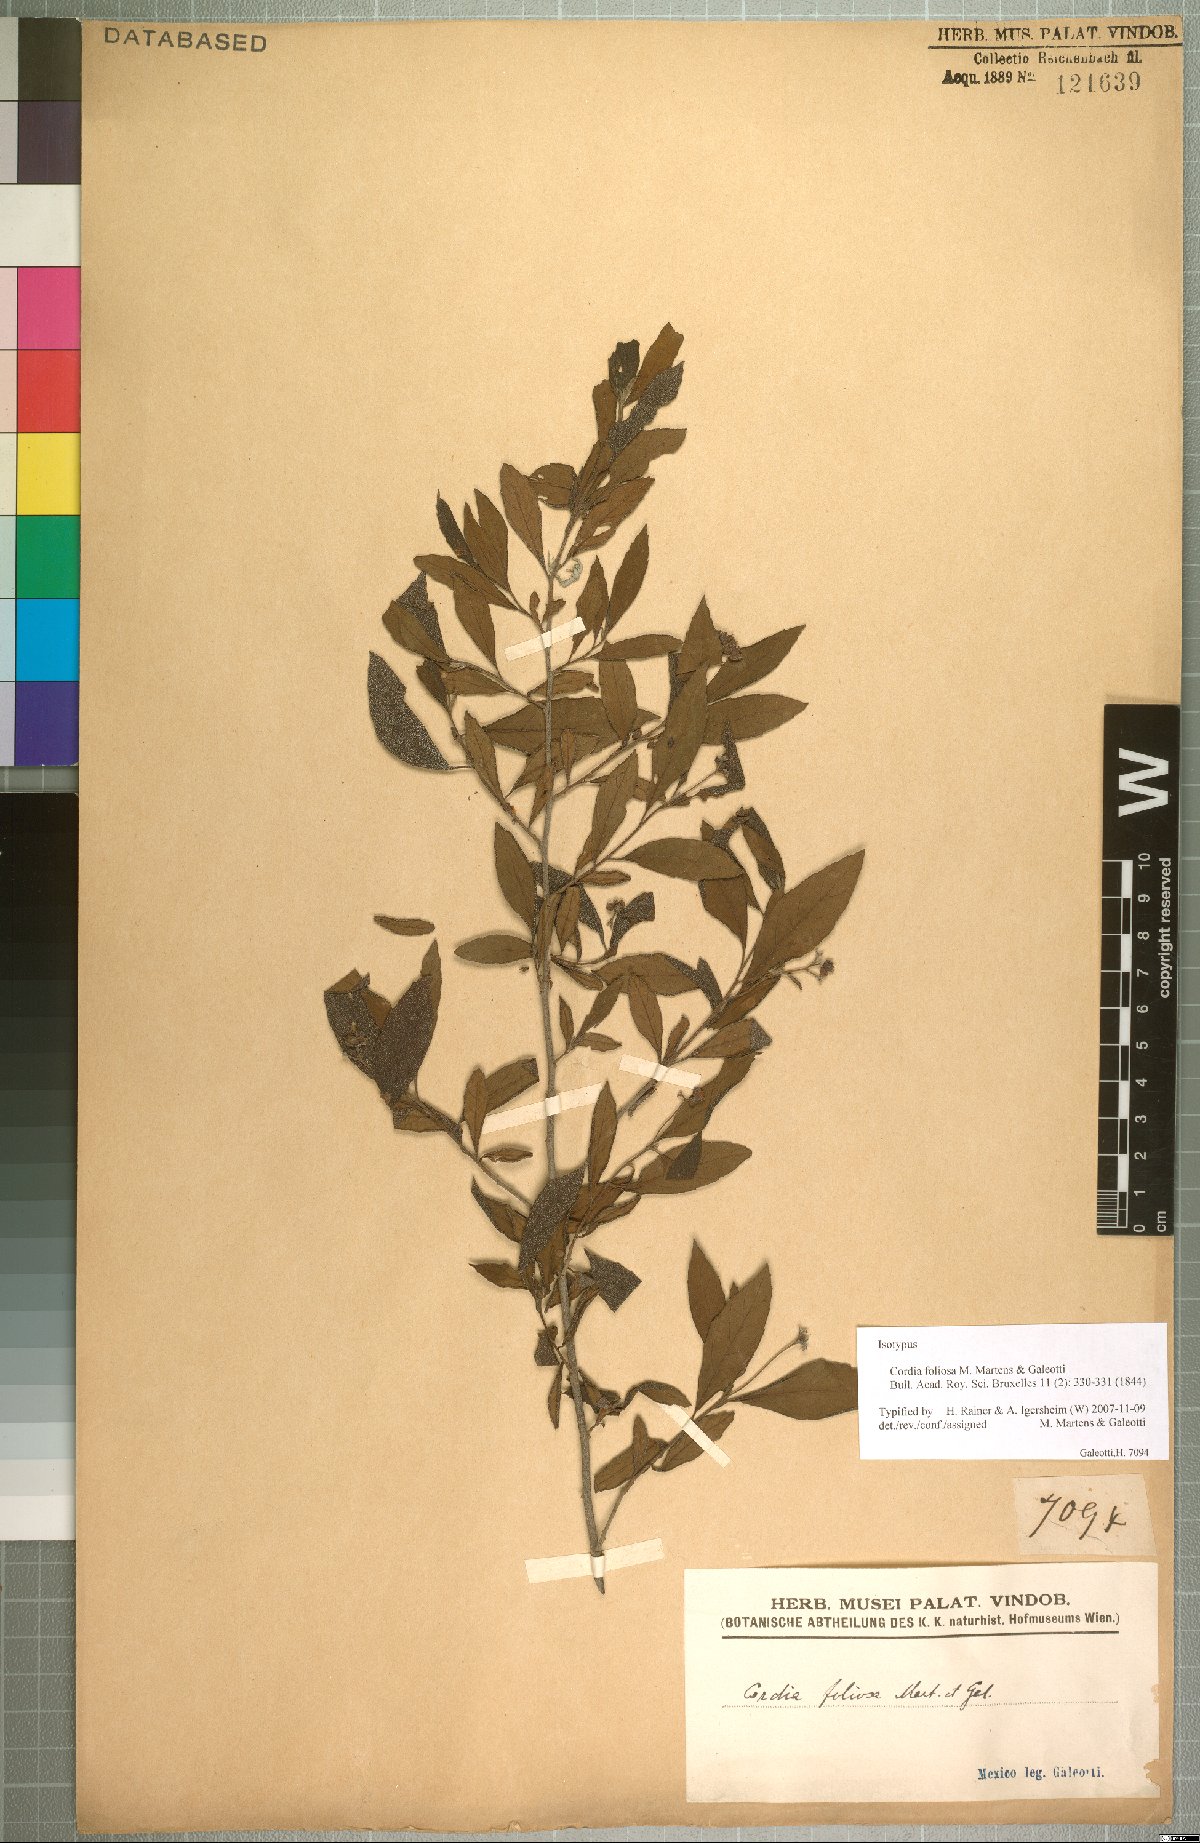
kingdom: Plantae
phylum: Tracheophyta
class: Magnoliopsida
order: Boraginales
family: Cordiaceae
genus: Varronia
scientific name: Varronia foliosa
